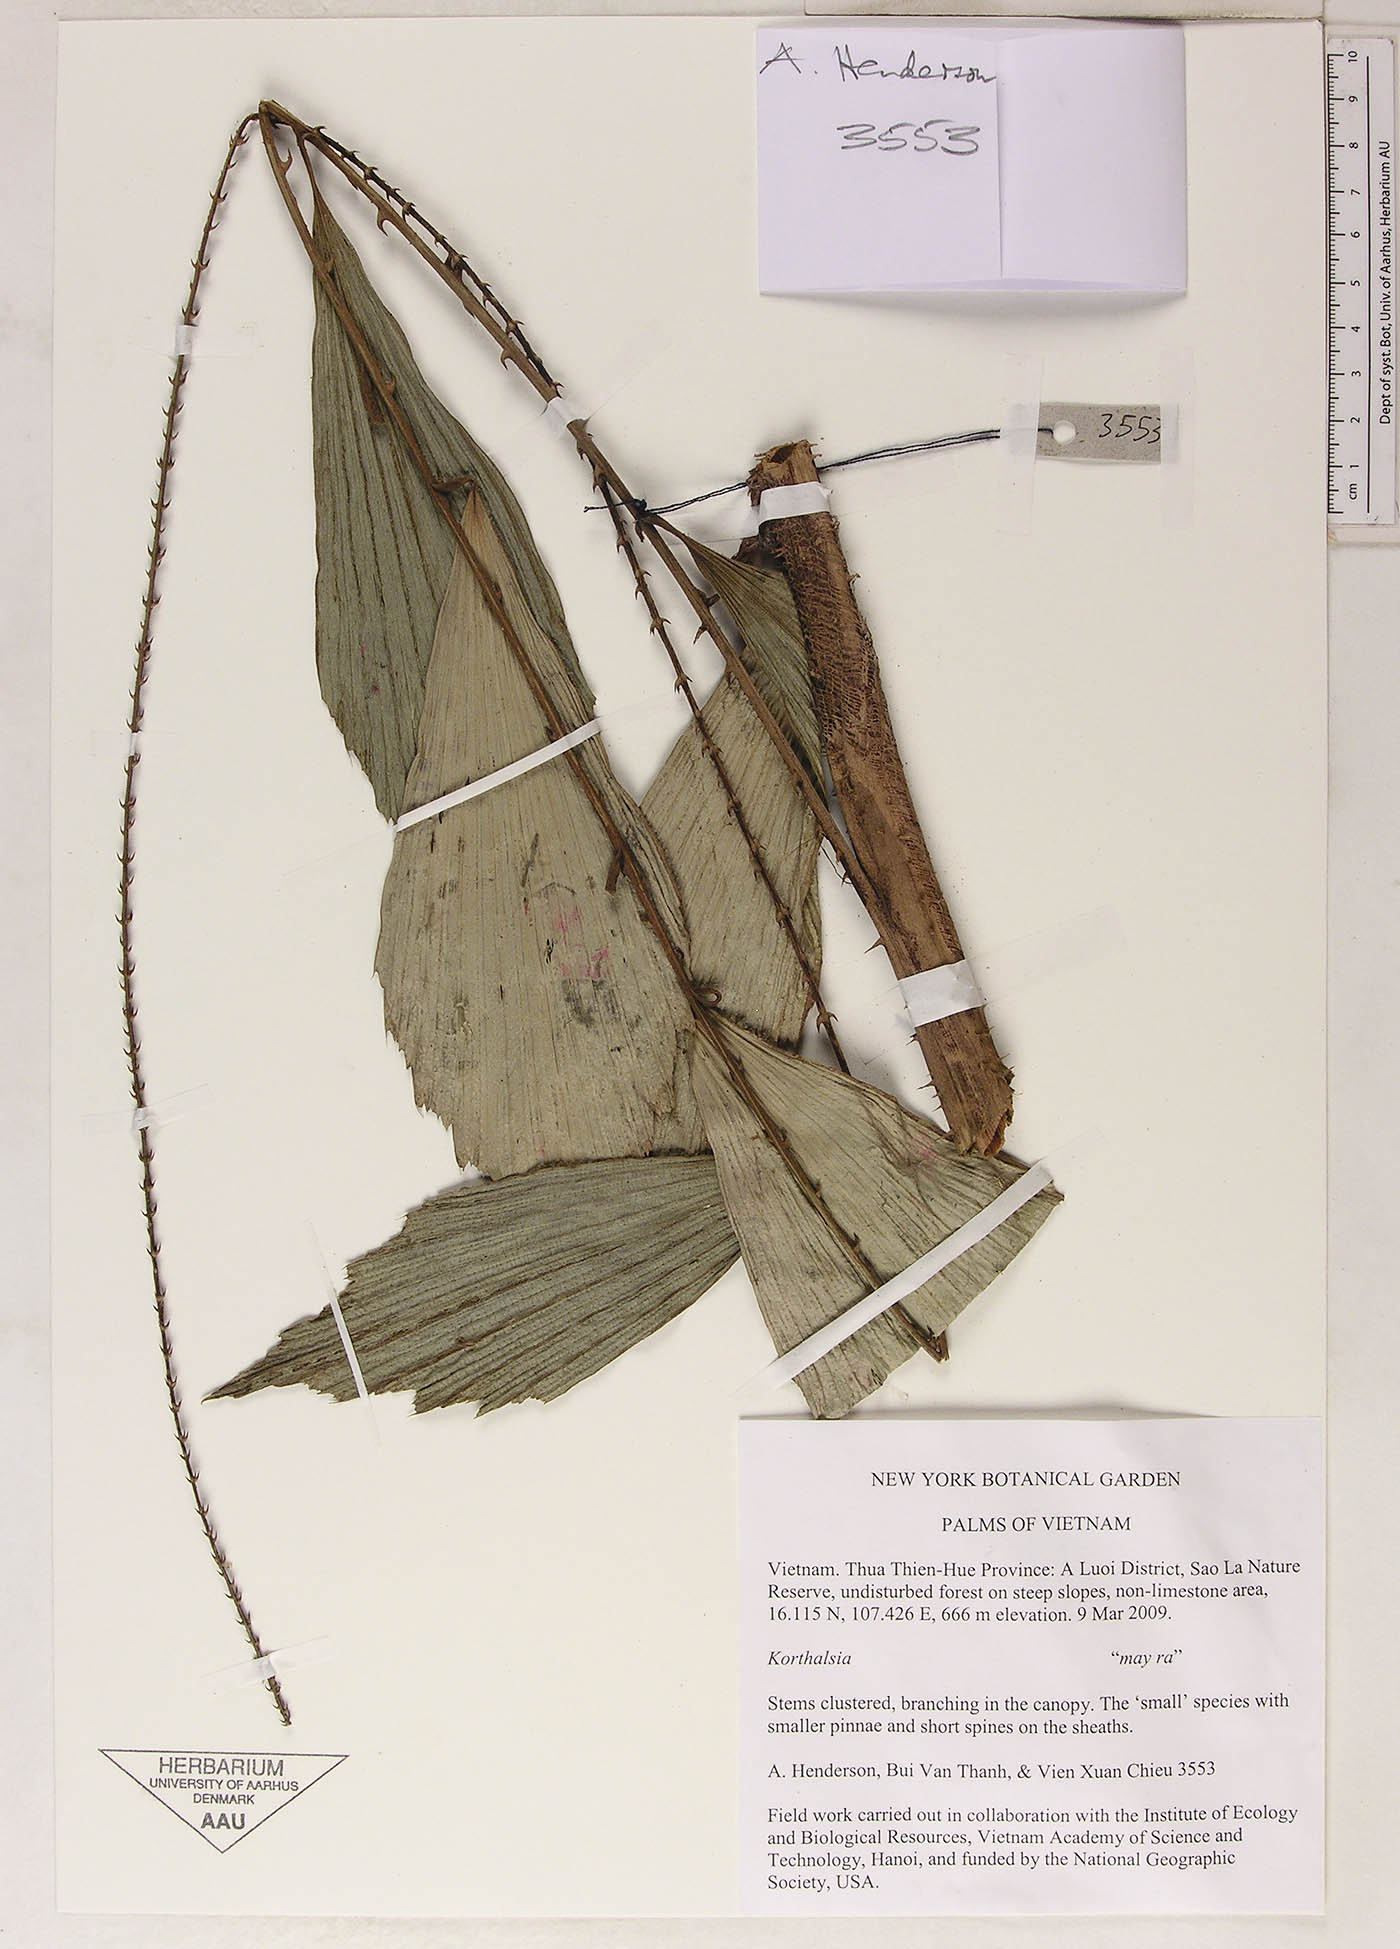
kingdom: Plantae
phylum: Tracheophyta
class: Liliopsida
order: Arecales
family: Arecaceae
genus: Korthalsia
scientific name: Korthalsia
